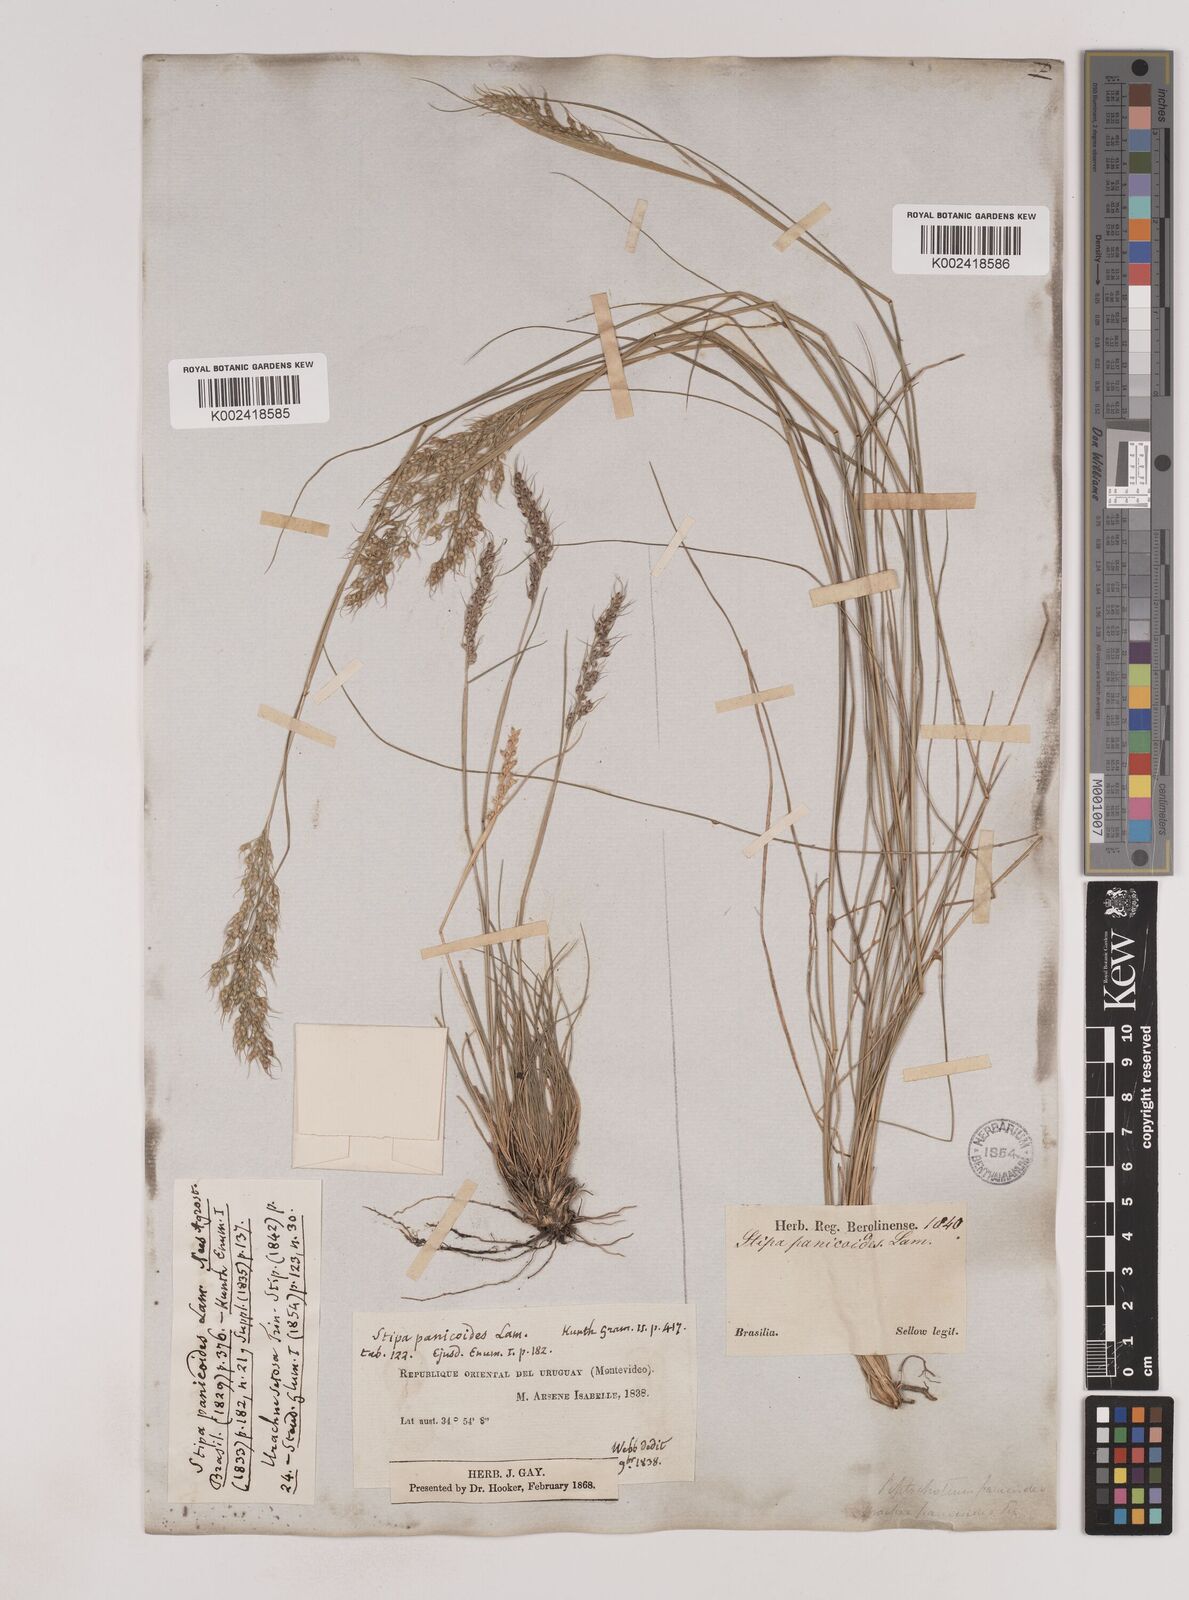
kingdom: Plantae
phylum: Tracheophyta
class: Liliopsida
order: Poales
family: Poaceae
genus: Piptochaetium
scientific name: Piptochaetium montevidense
